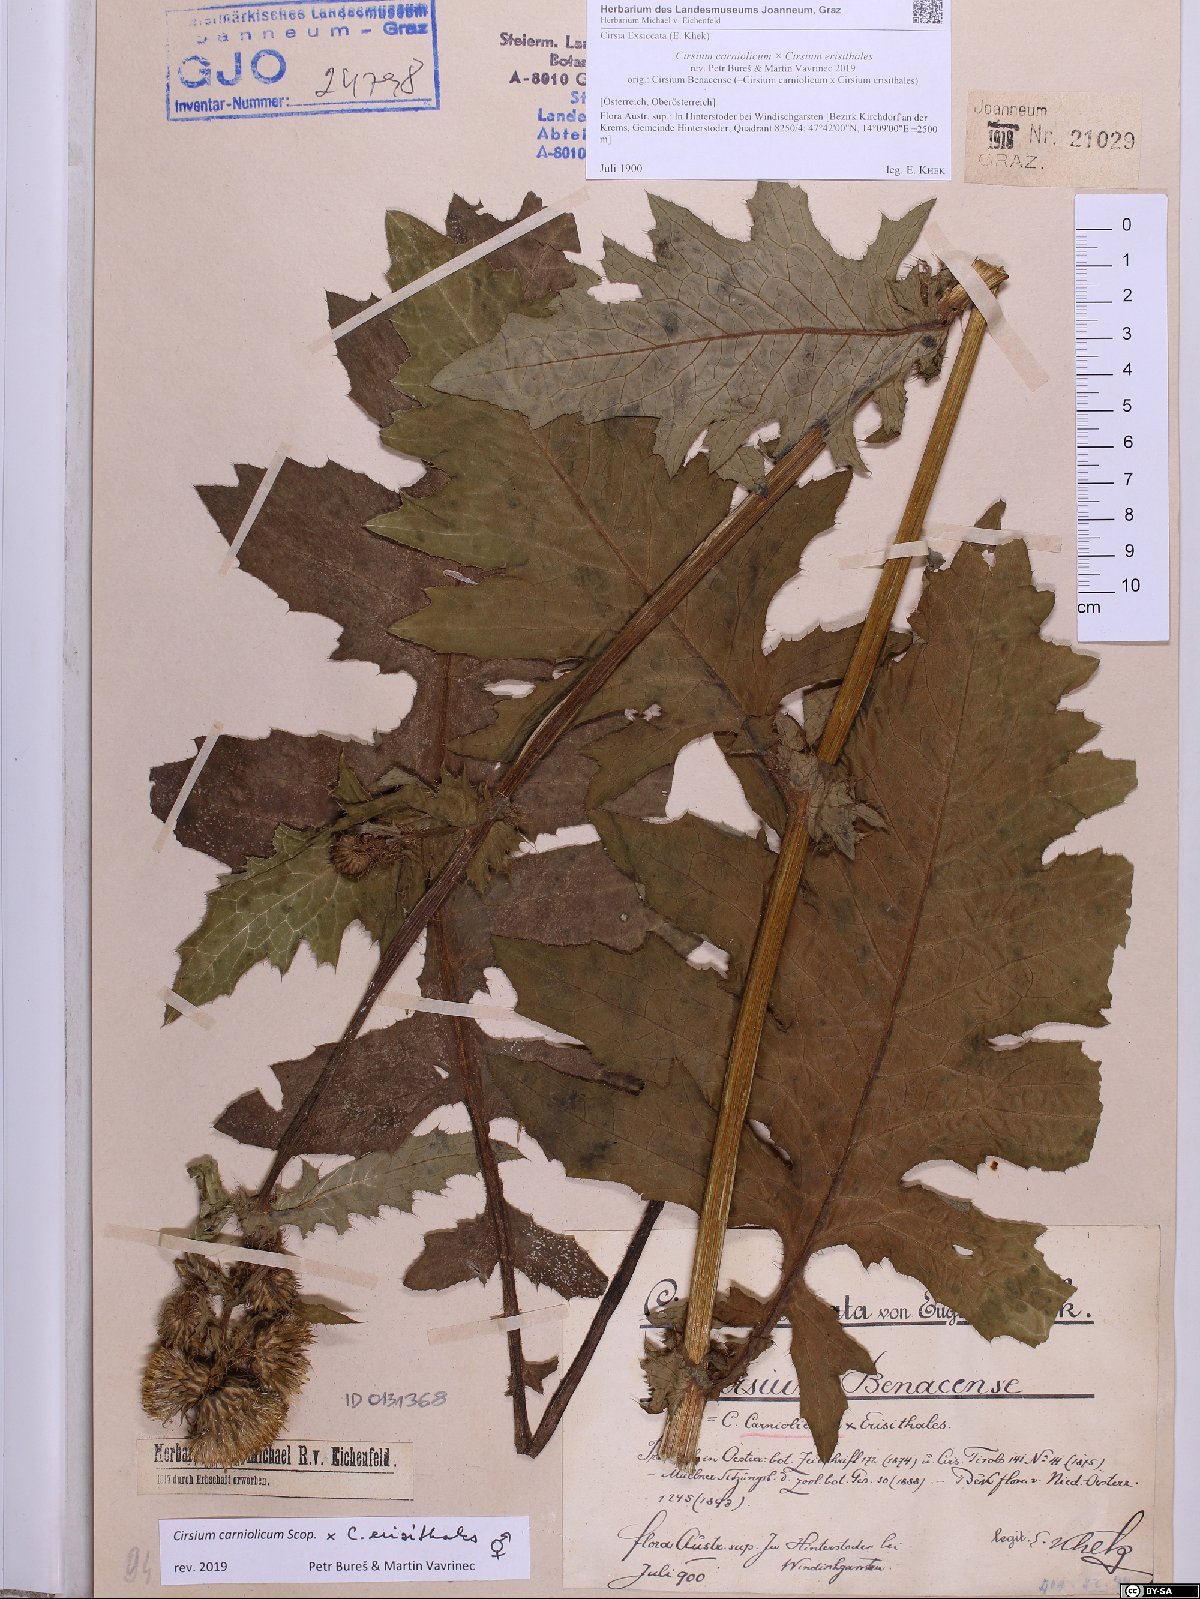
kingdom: Plantae
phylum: Tracheophyta
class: Magnoliopsida
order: Asterales
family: Asteraceae
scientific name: Asteraceae
